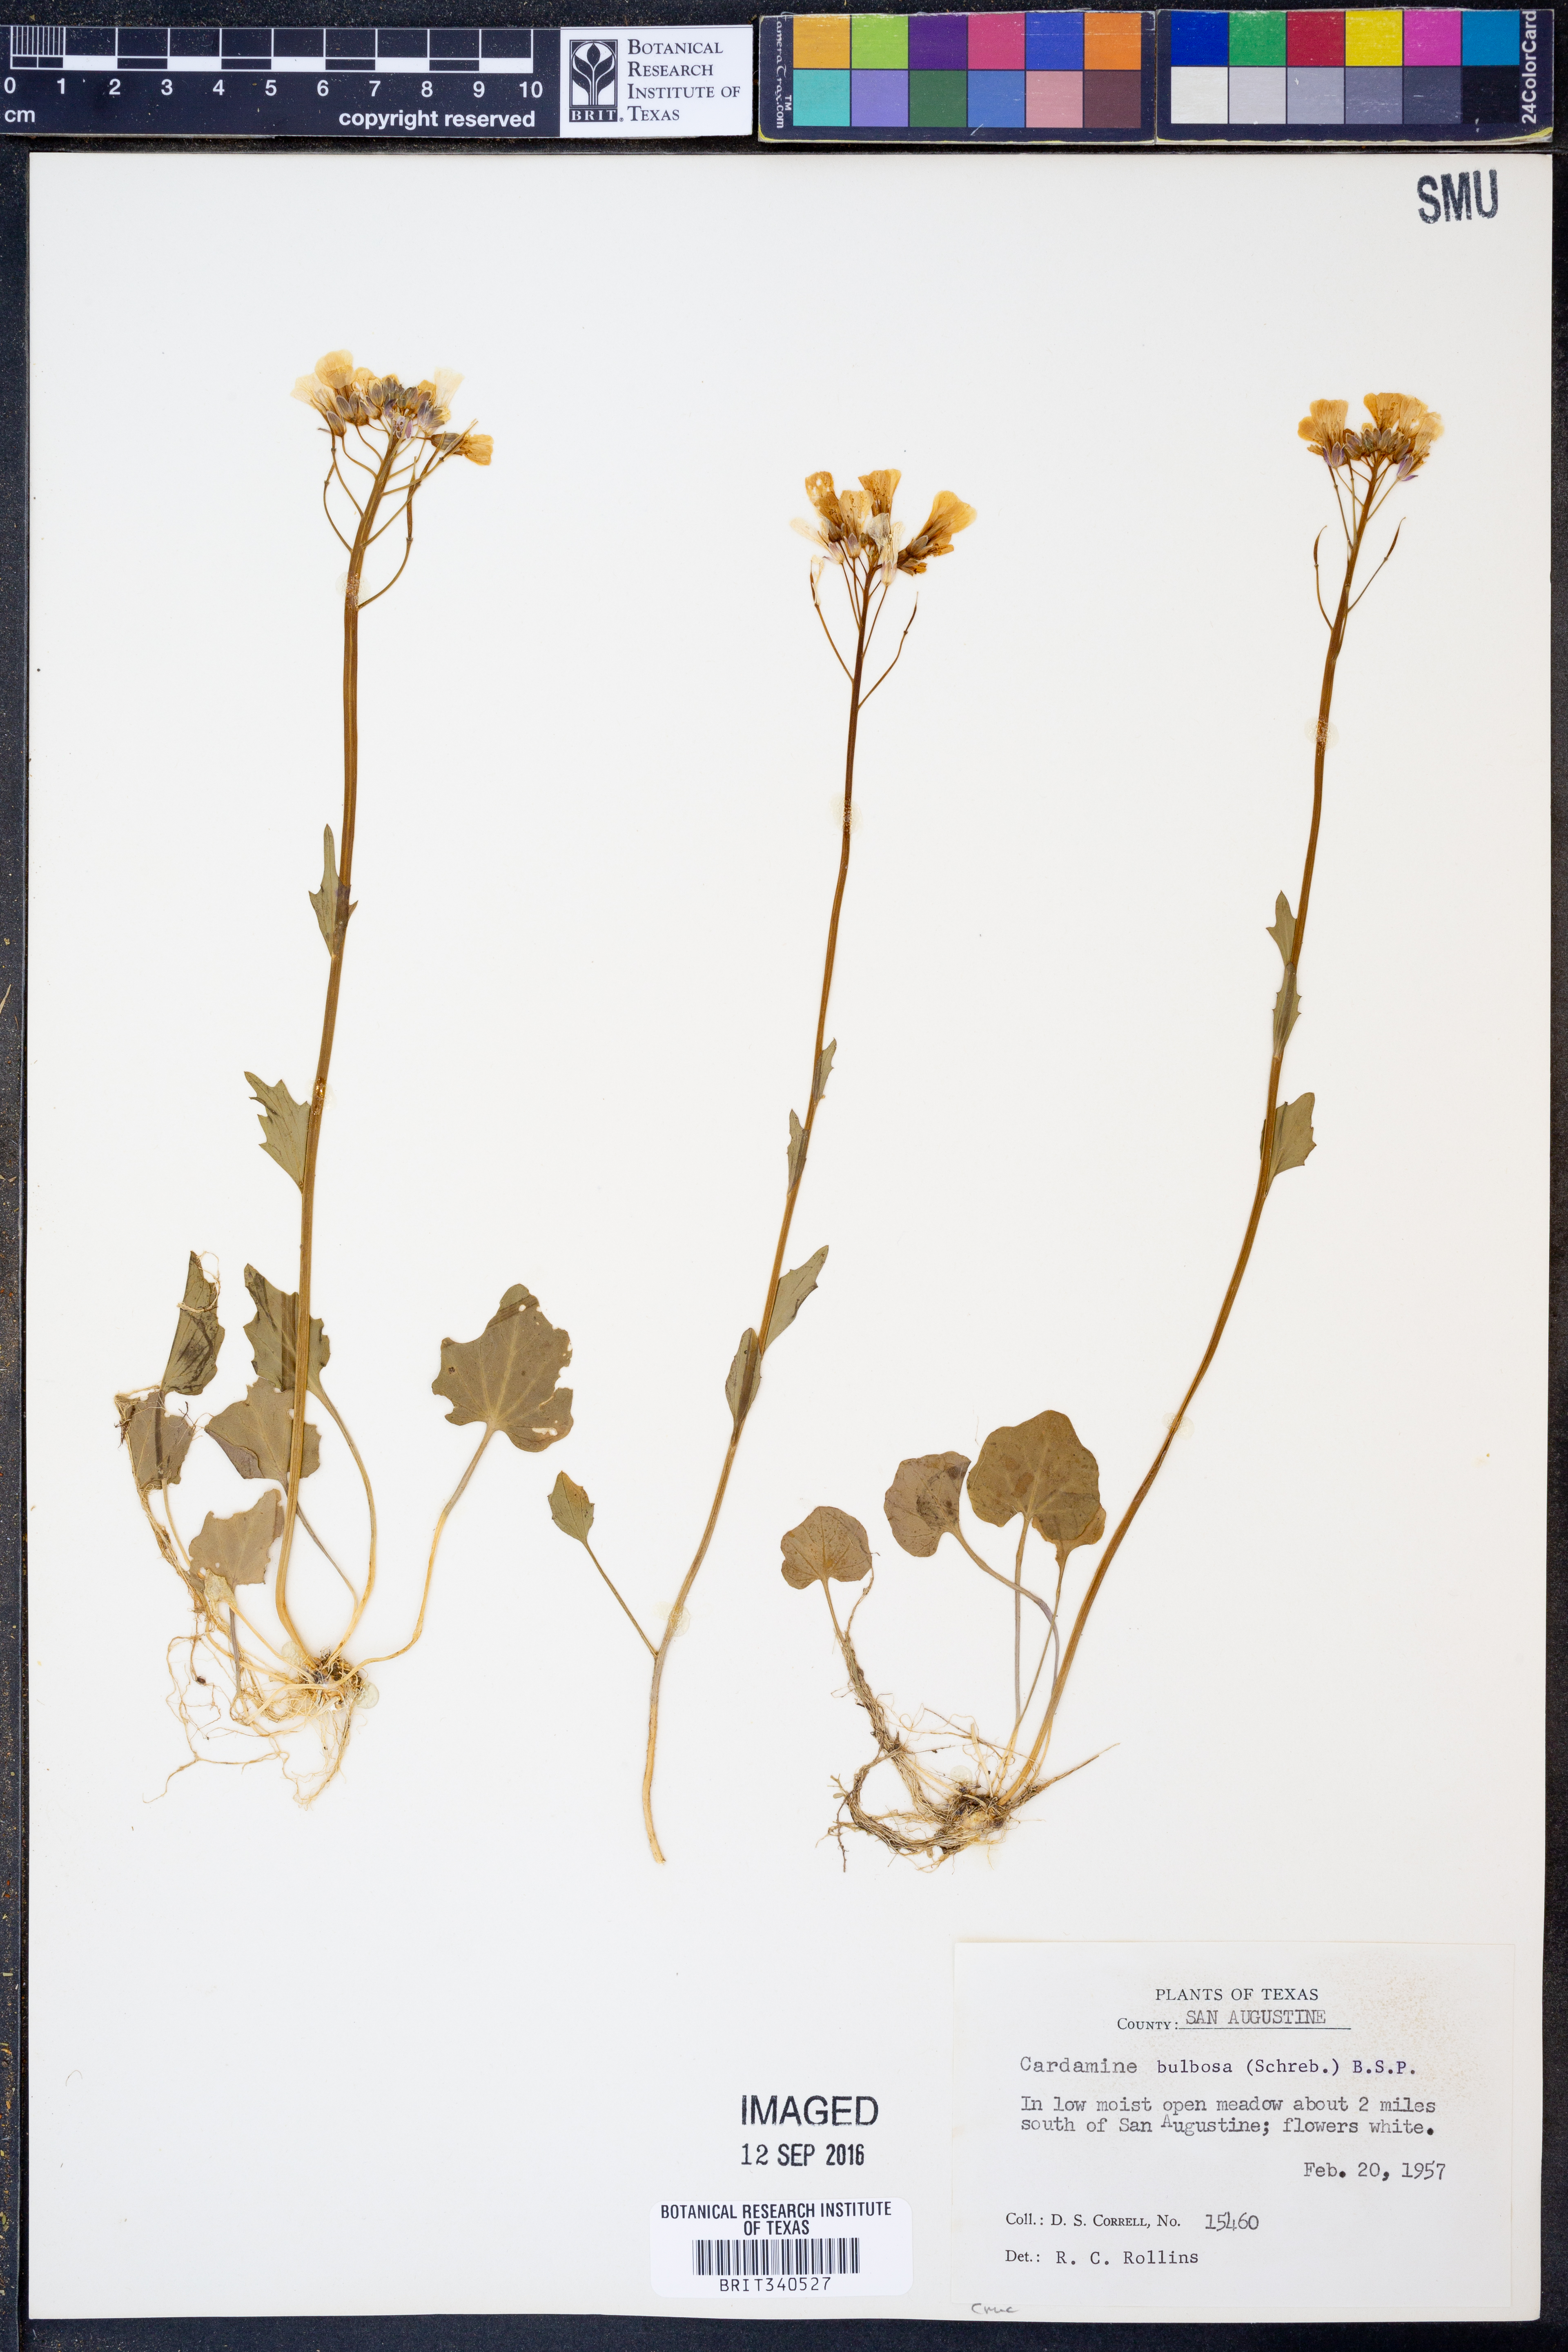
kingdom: Plantae
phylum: Tracheophyta
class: Magnoliopsida
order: Brassicales
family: Brassicaceae
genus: Cardamine
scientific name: Cardamine bulbosa
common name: Spring cress
